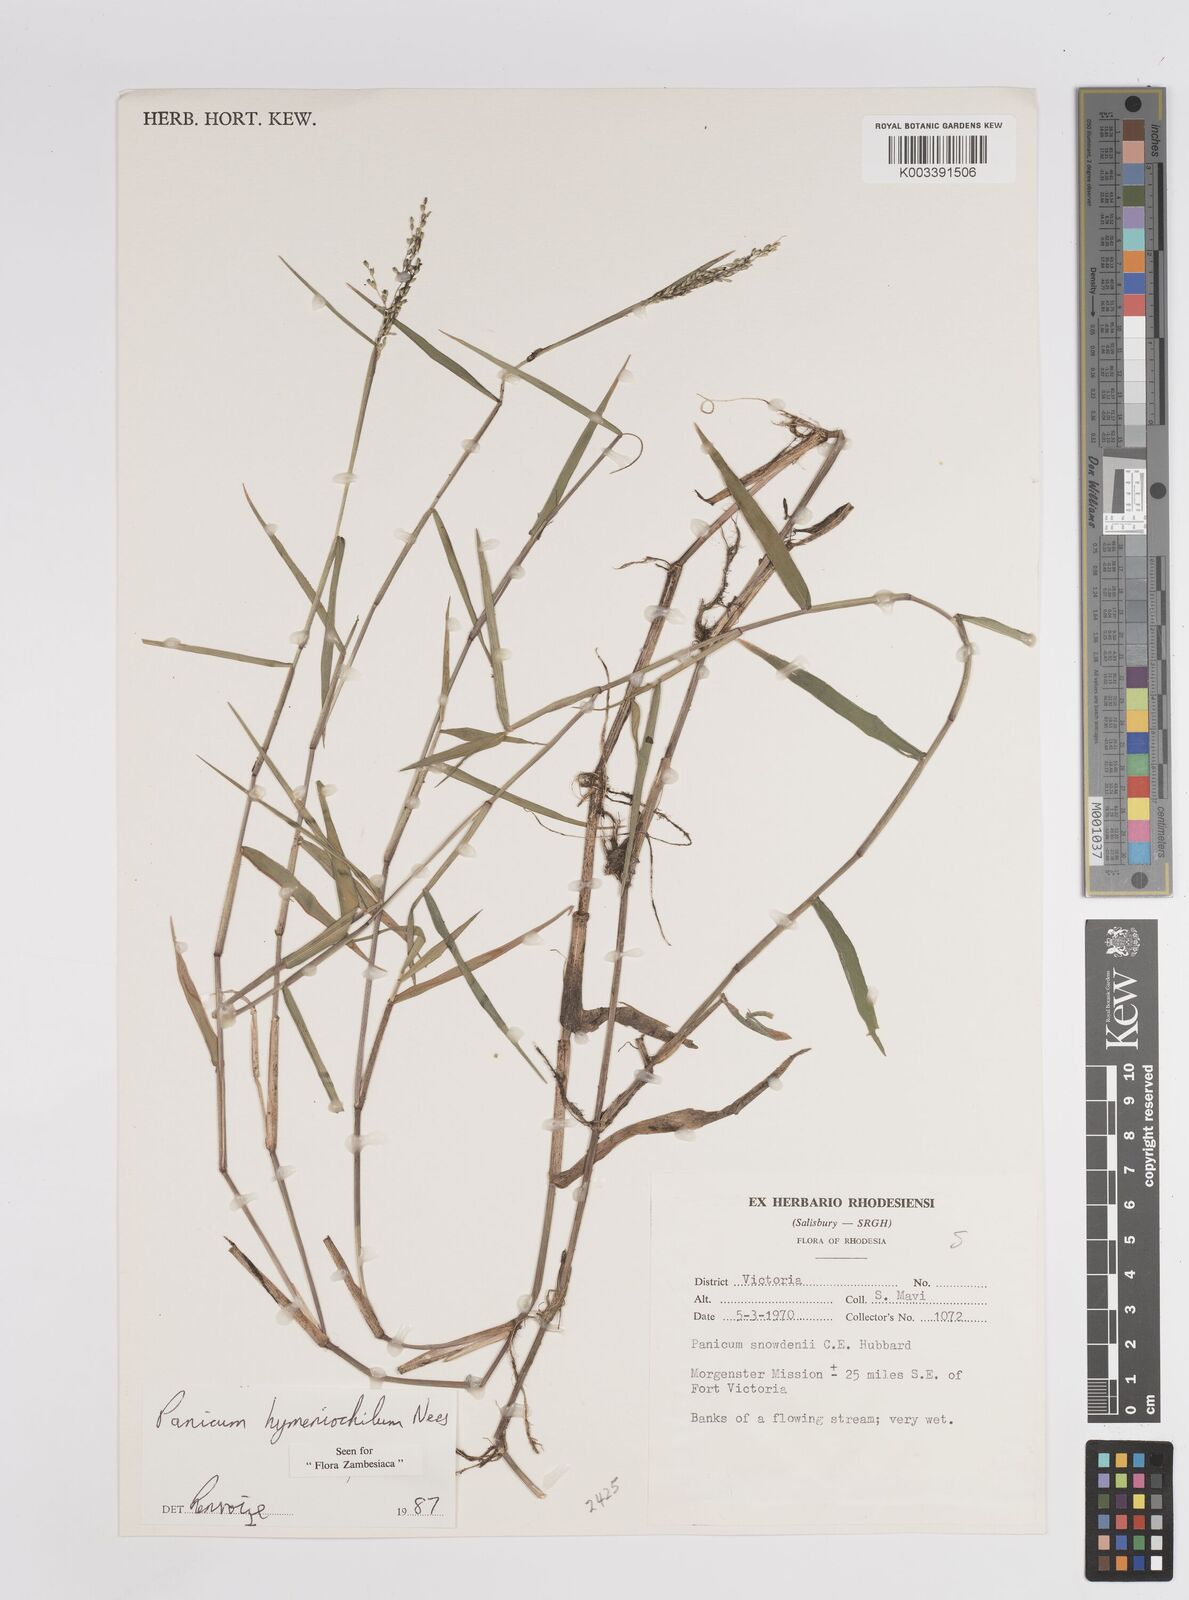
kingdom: Plantae
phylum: Tracheophyta
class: Liliopsida
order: Poales
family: Poaceae
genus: Adenochloa
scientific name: Adenochloa hymeniochila
